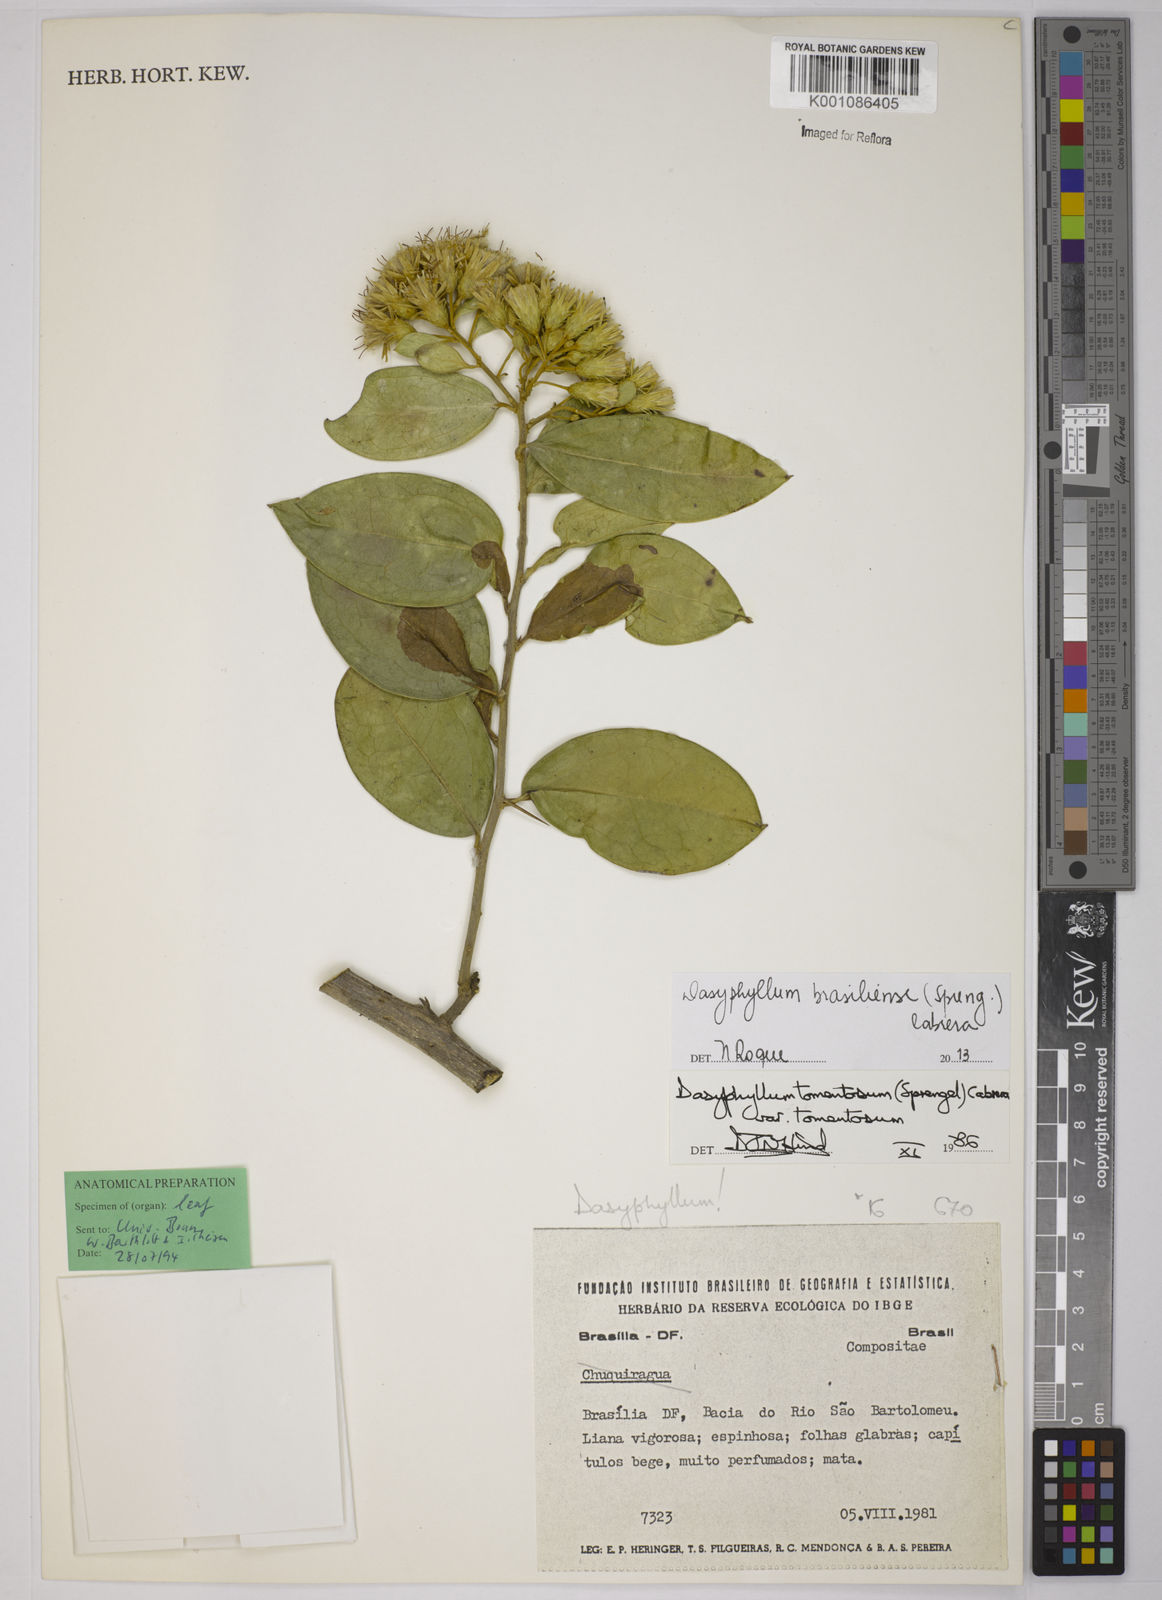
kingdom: Plantae
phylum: Tracheophyta
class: Magnoliopsida
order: Asterales
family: Asteraceae
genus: Dasyphyllum
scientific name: Dasyphyllum brasiliense
